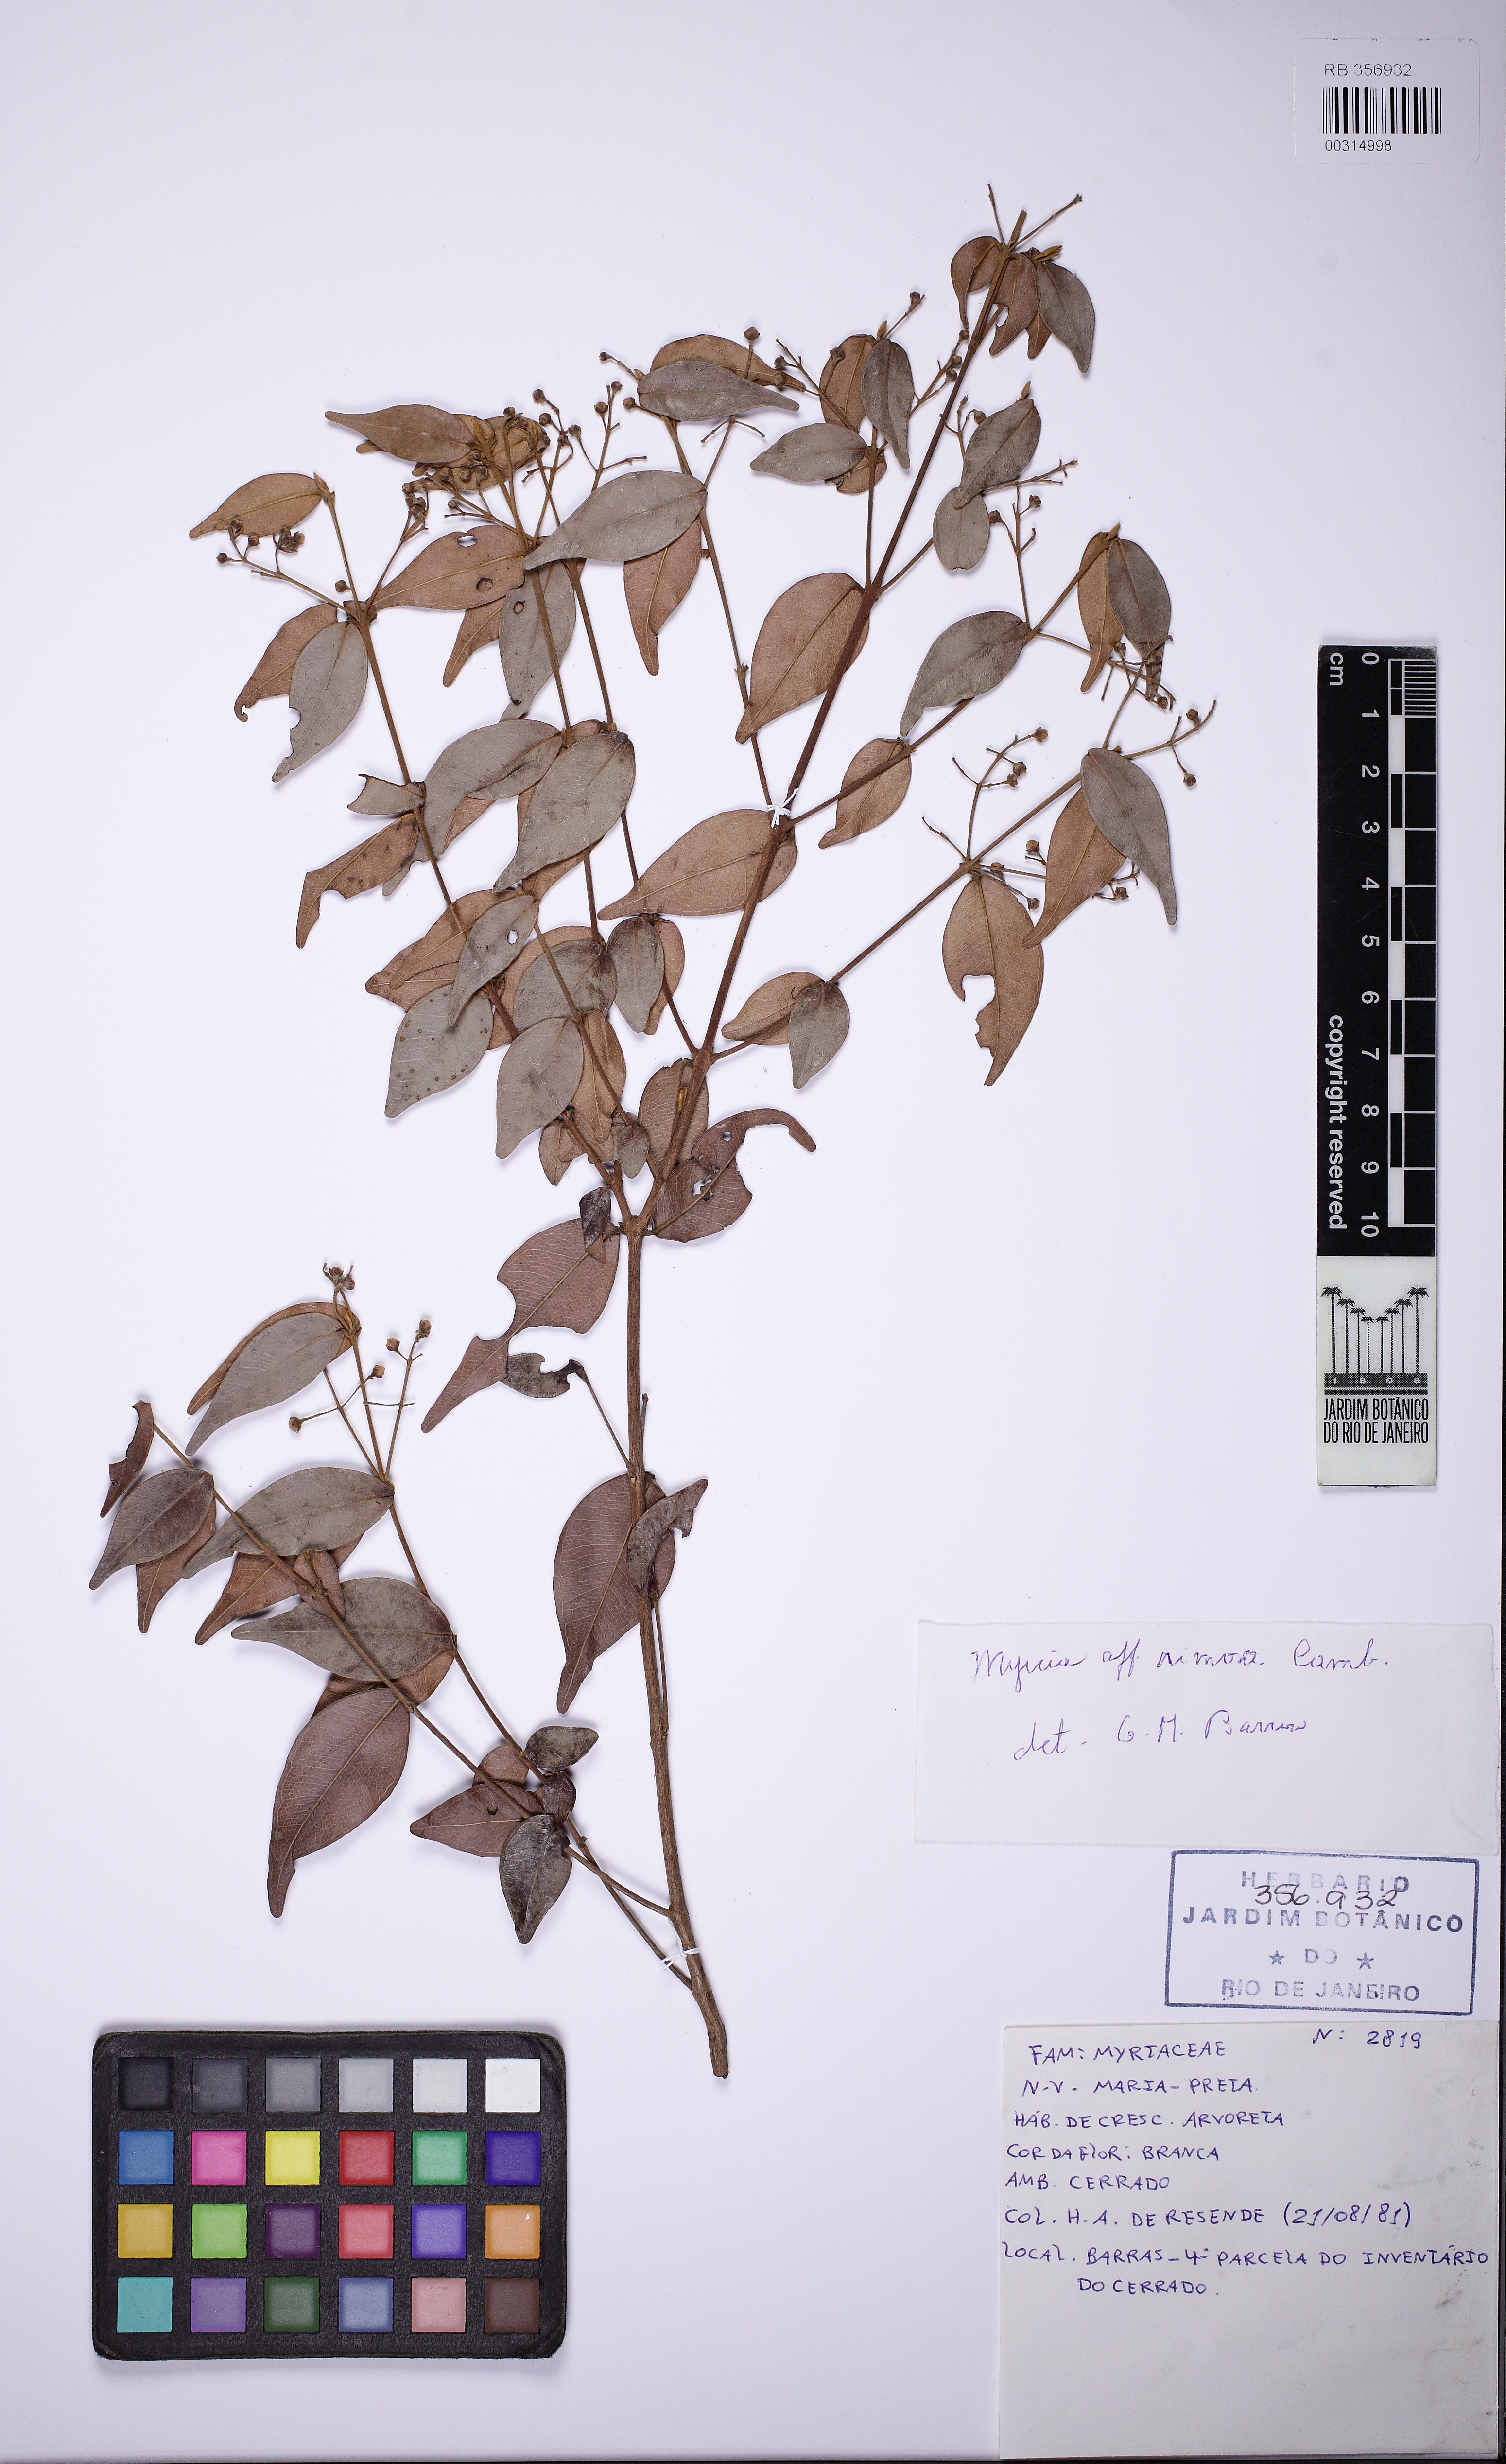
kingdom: Plantae
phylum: Tracheophyta
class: Magnoliopsida
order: Myrtales
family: Myrtaceae
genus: Myrcia
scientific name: Myrcia splendens
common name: Surinam cherry
